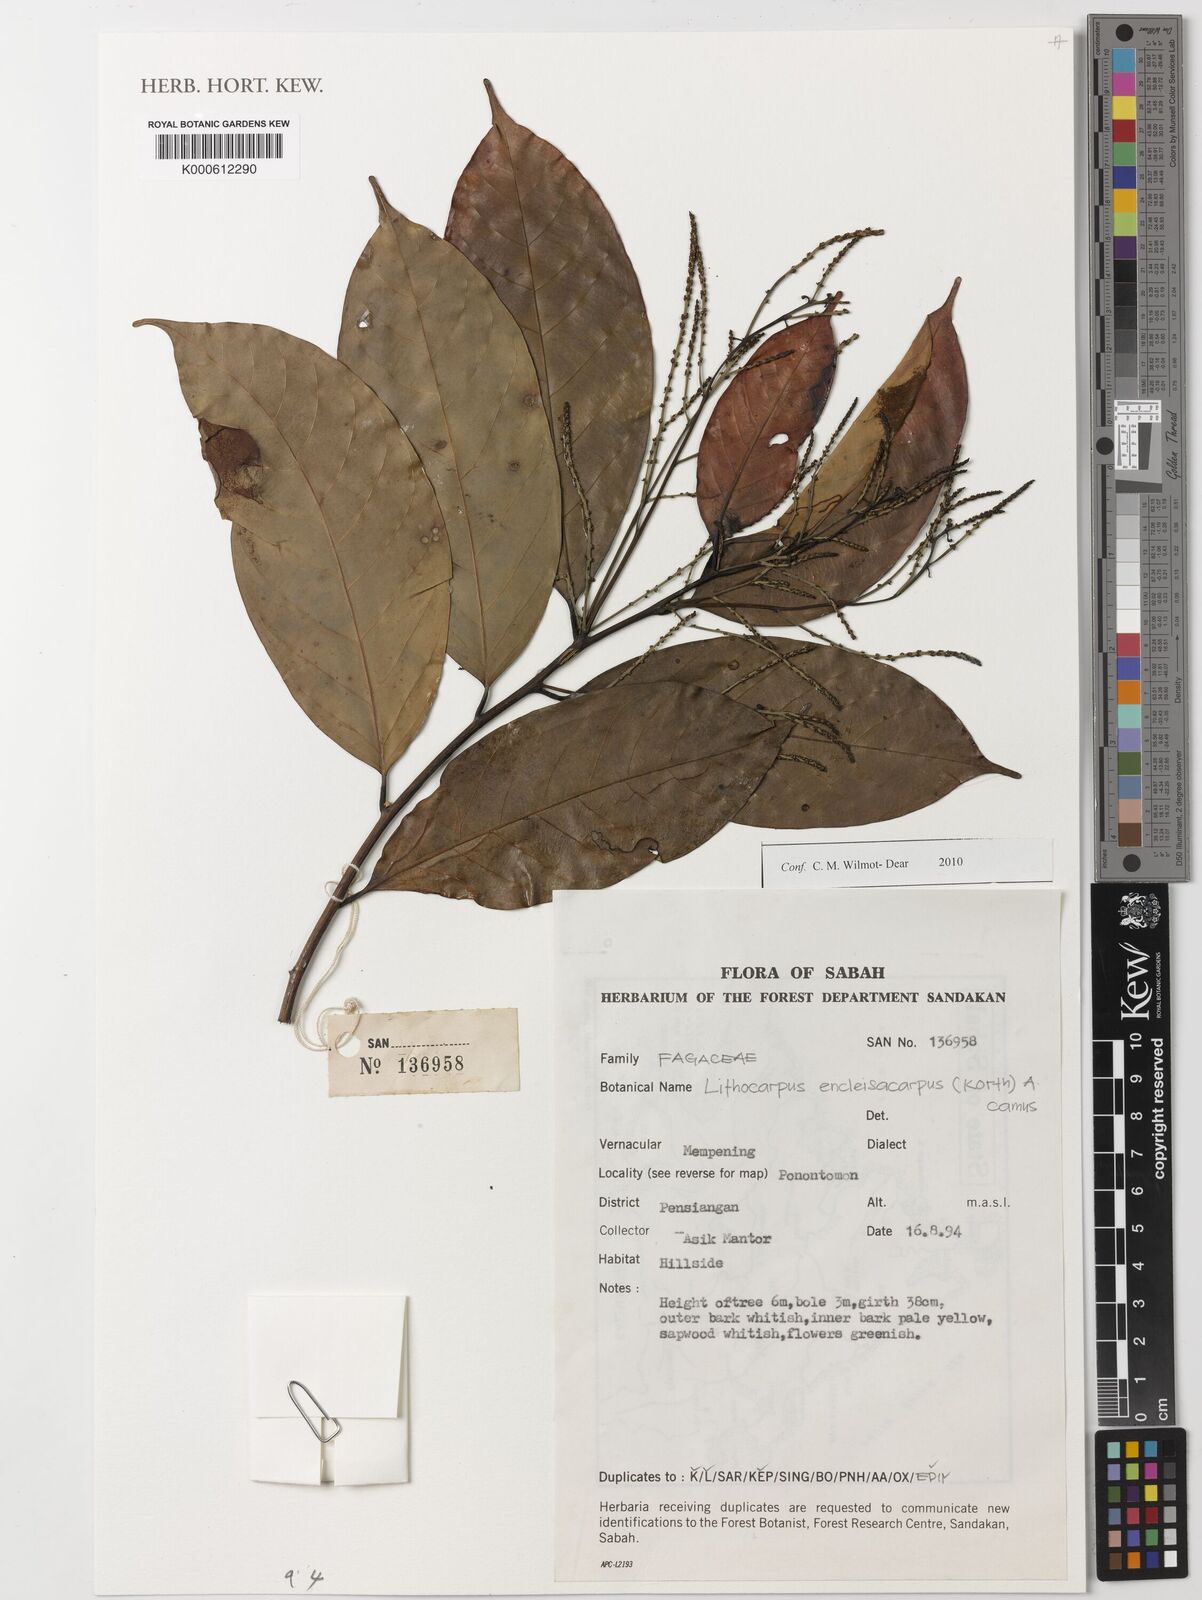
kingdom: Plantae
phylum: Tracheophyta
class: Magnoliopsida
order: Fagales
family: Fagaceae
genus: Lithocarpus
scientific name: Lithocarpus encleisacarpus
